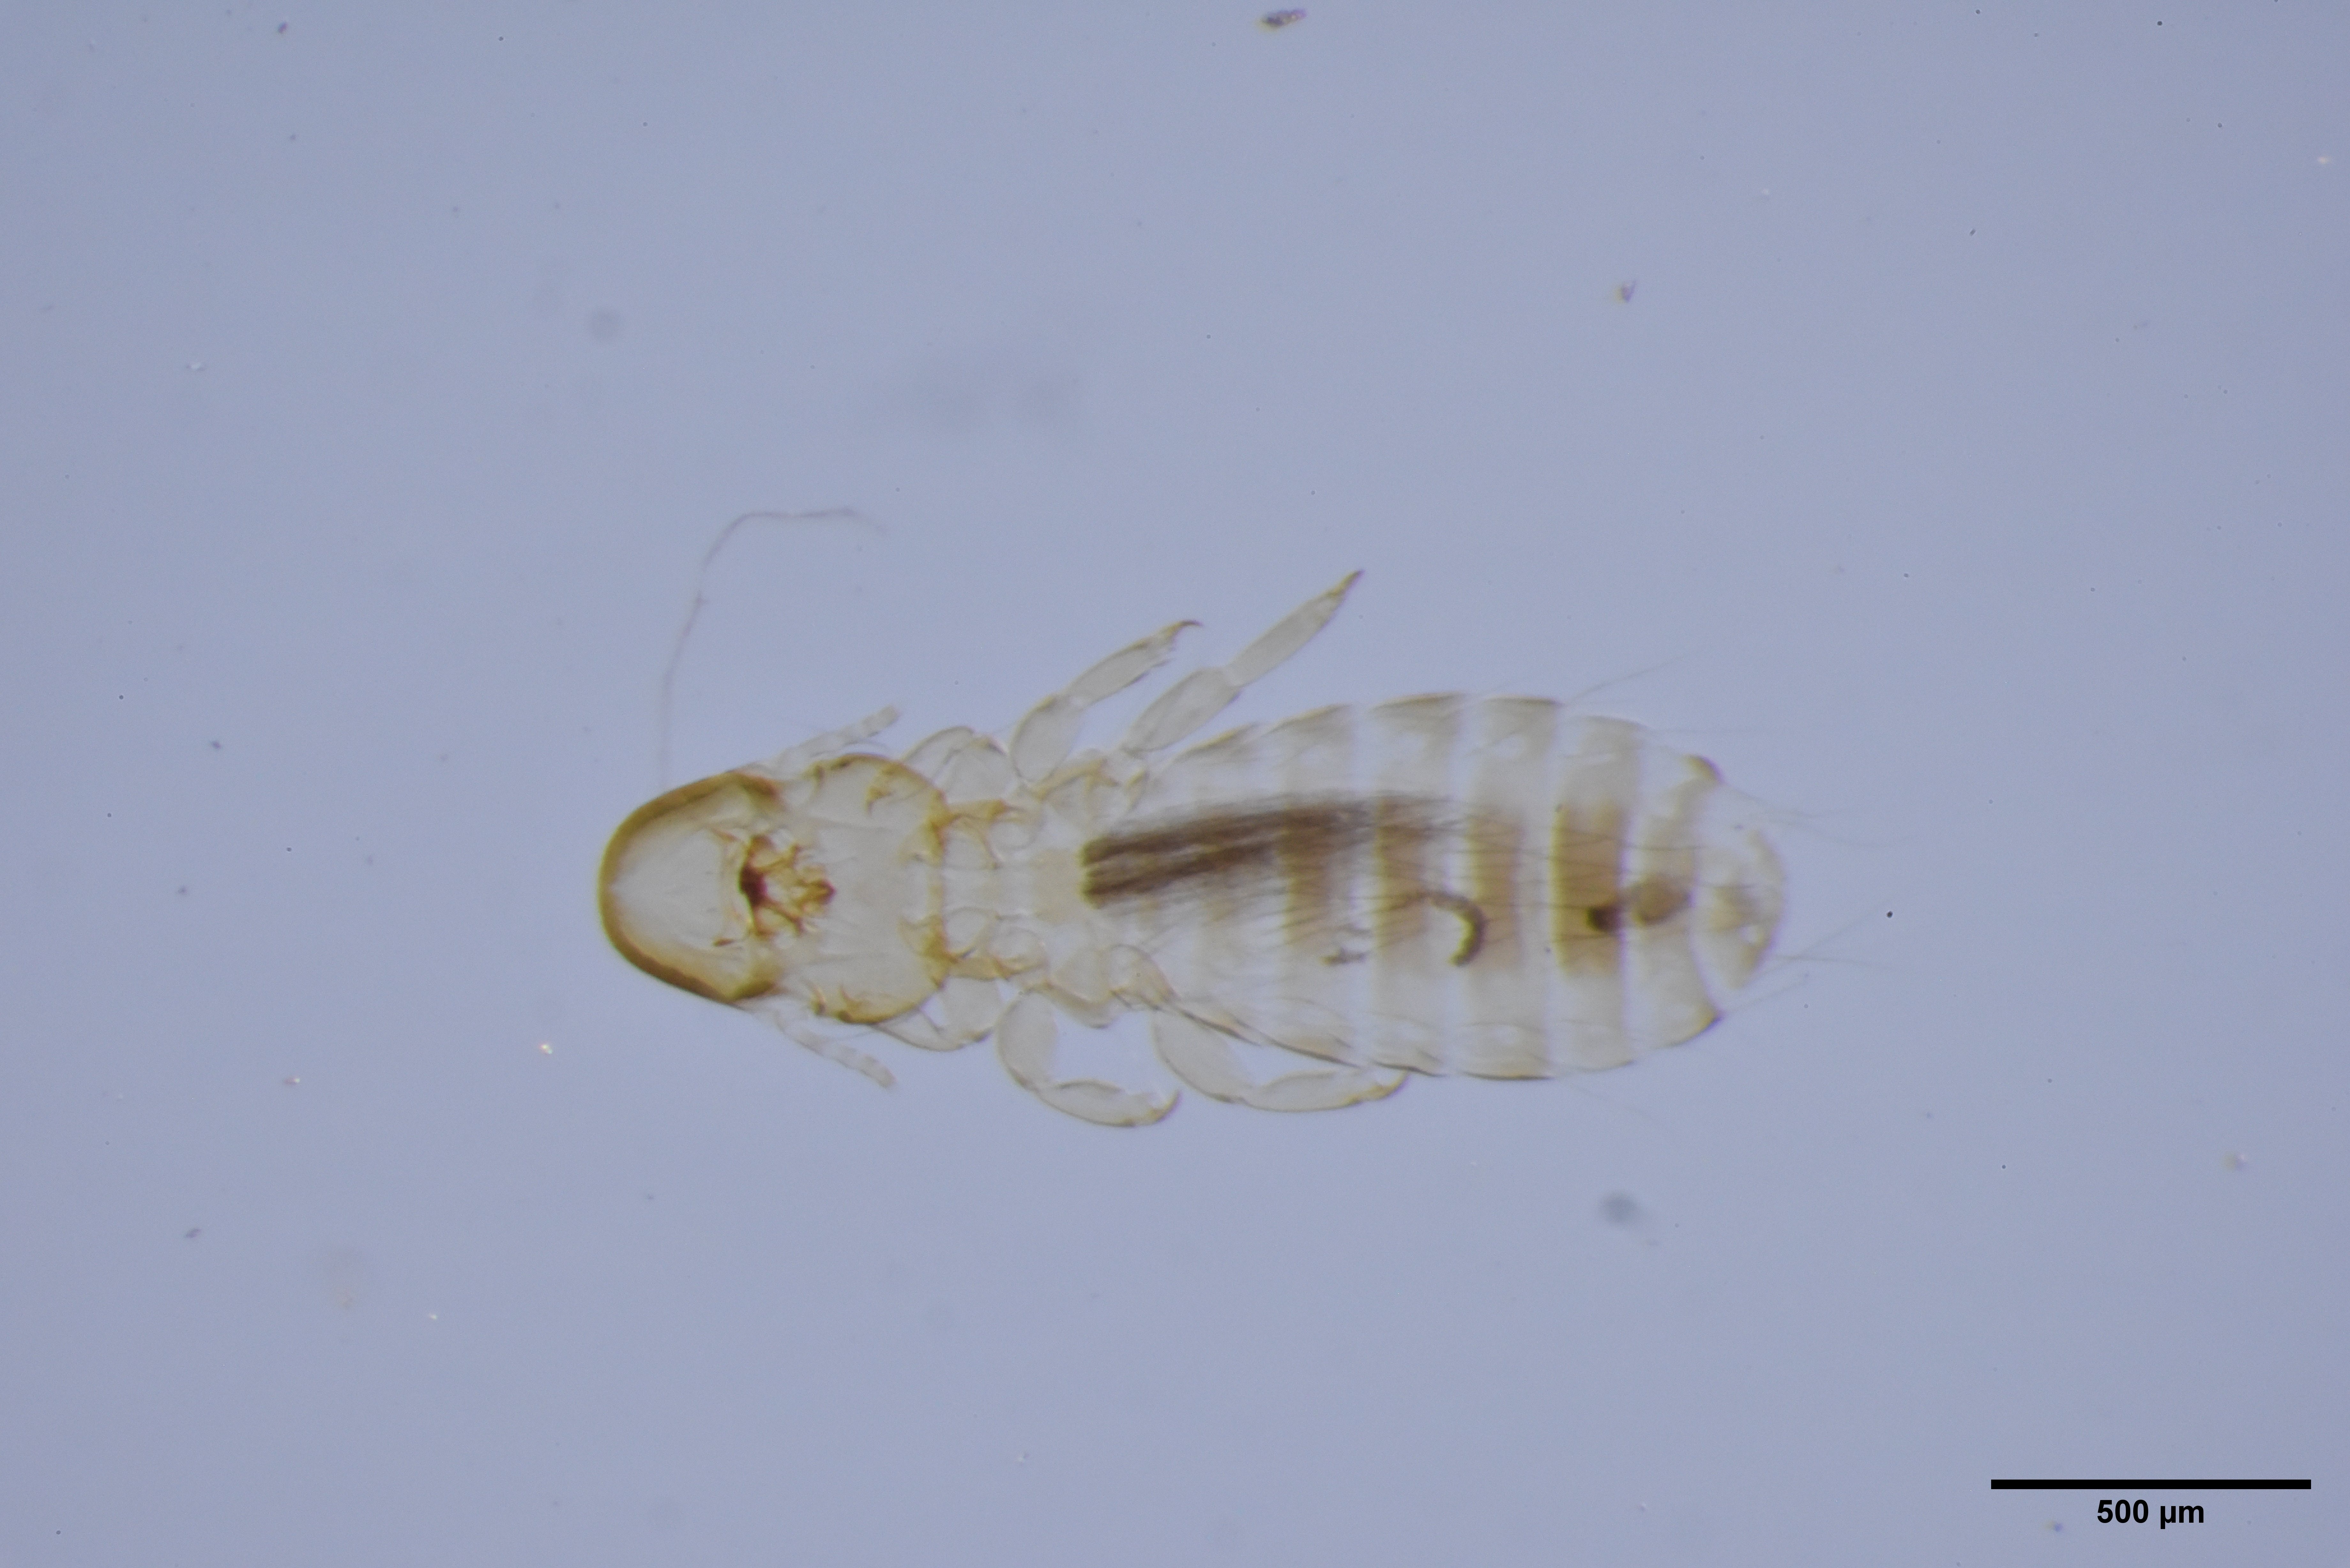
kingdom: Animalia
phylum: Arthropoda
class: Insecta
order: Psocodea
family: Philopteridae
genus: Degeeriella
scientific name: Degeeriella vagans
